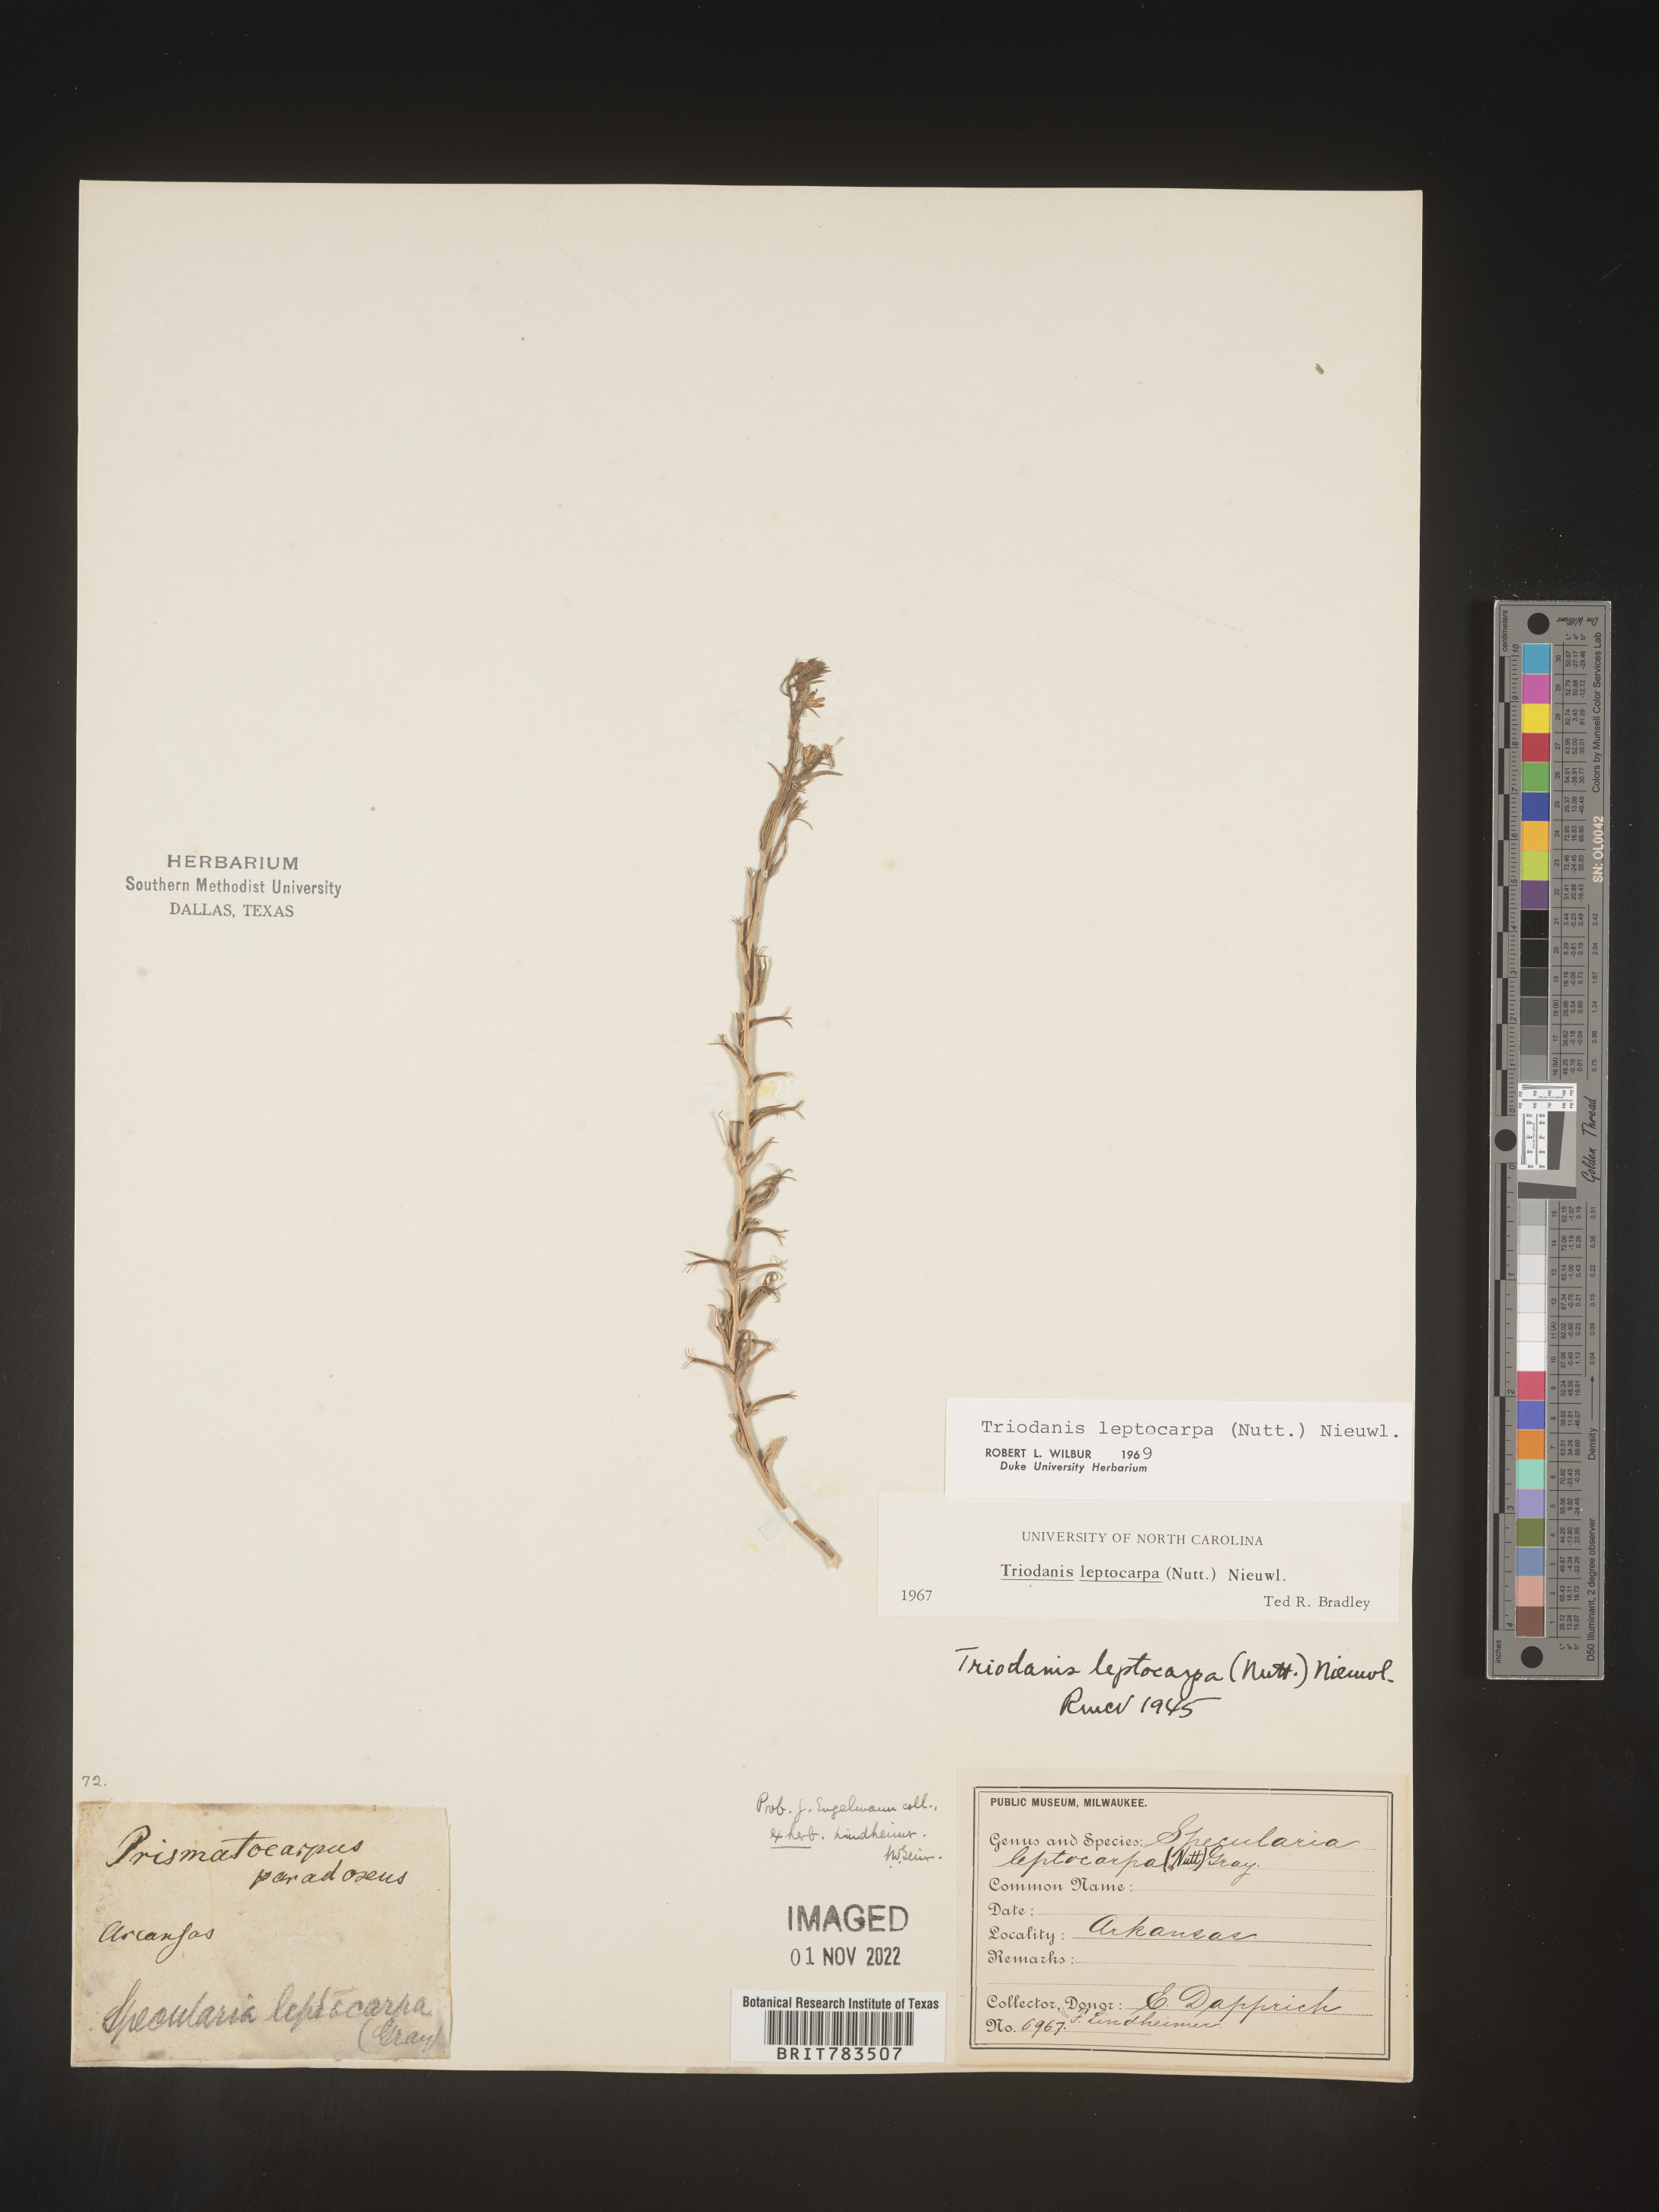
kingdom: Plantae
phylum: Tracheophyta
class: Magnoliopsida
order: Asterales
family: Campanulaceae
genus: Triodanis
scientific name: Triodanis leptocarpa
